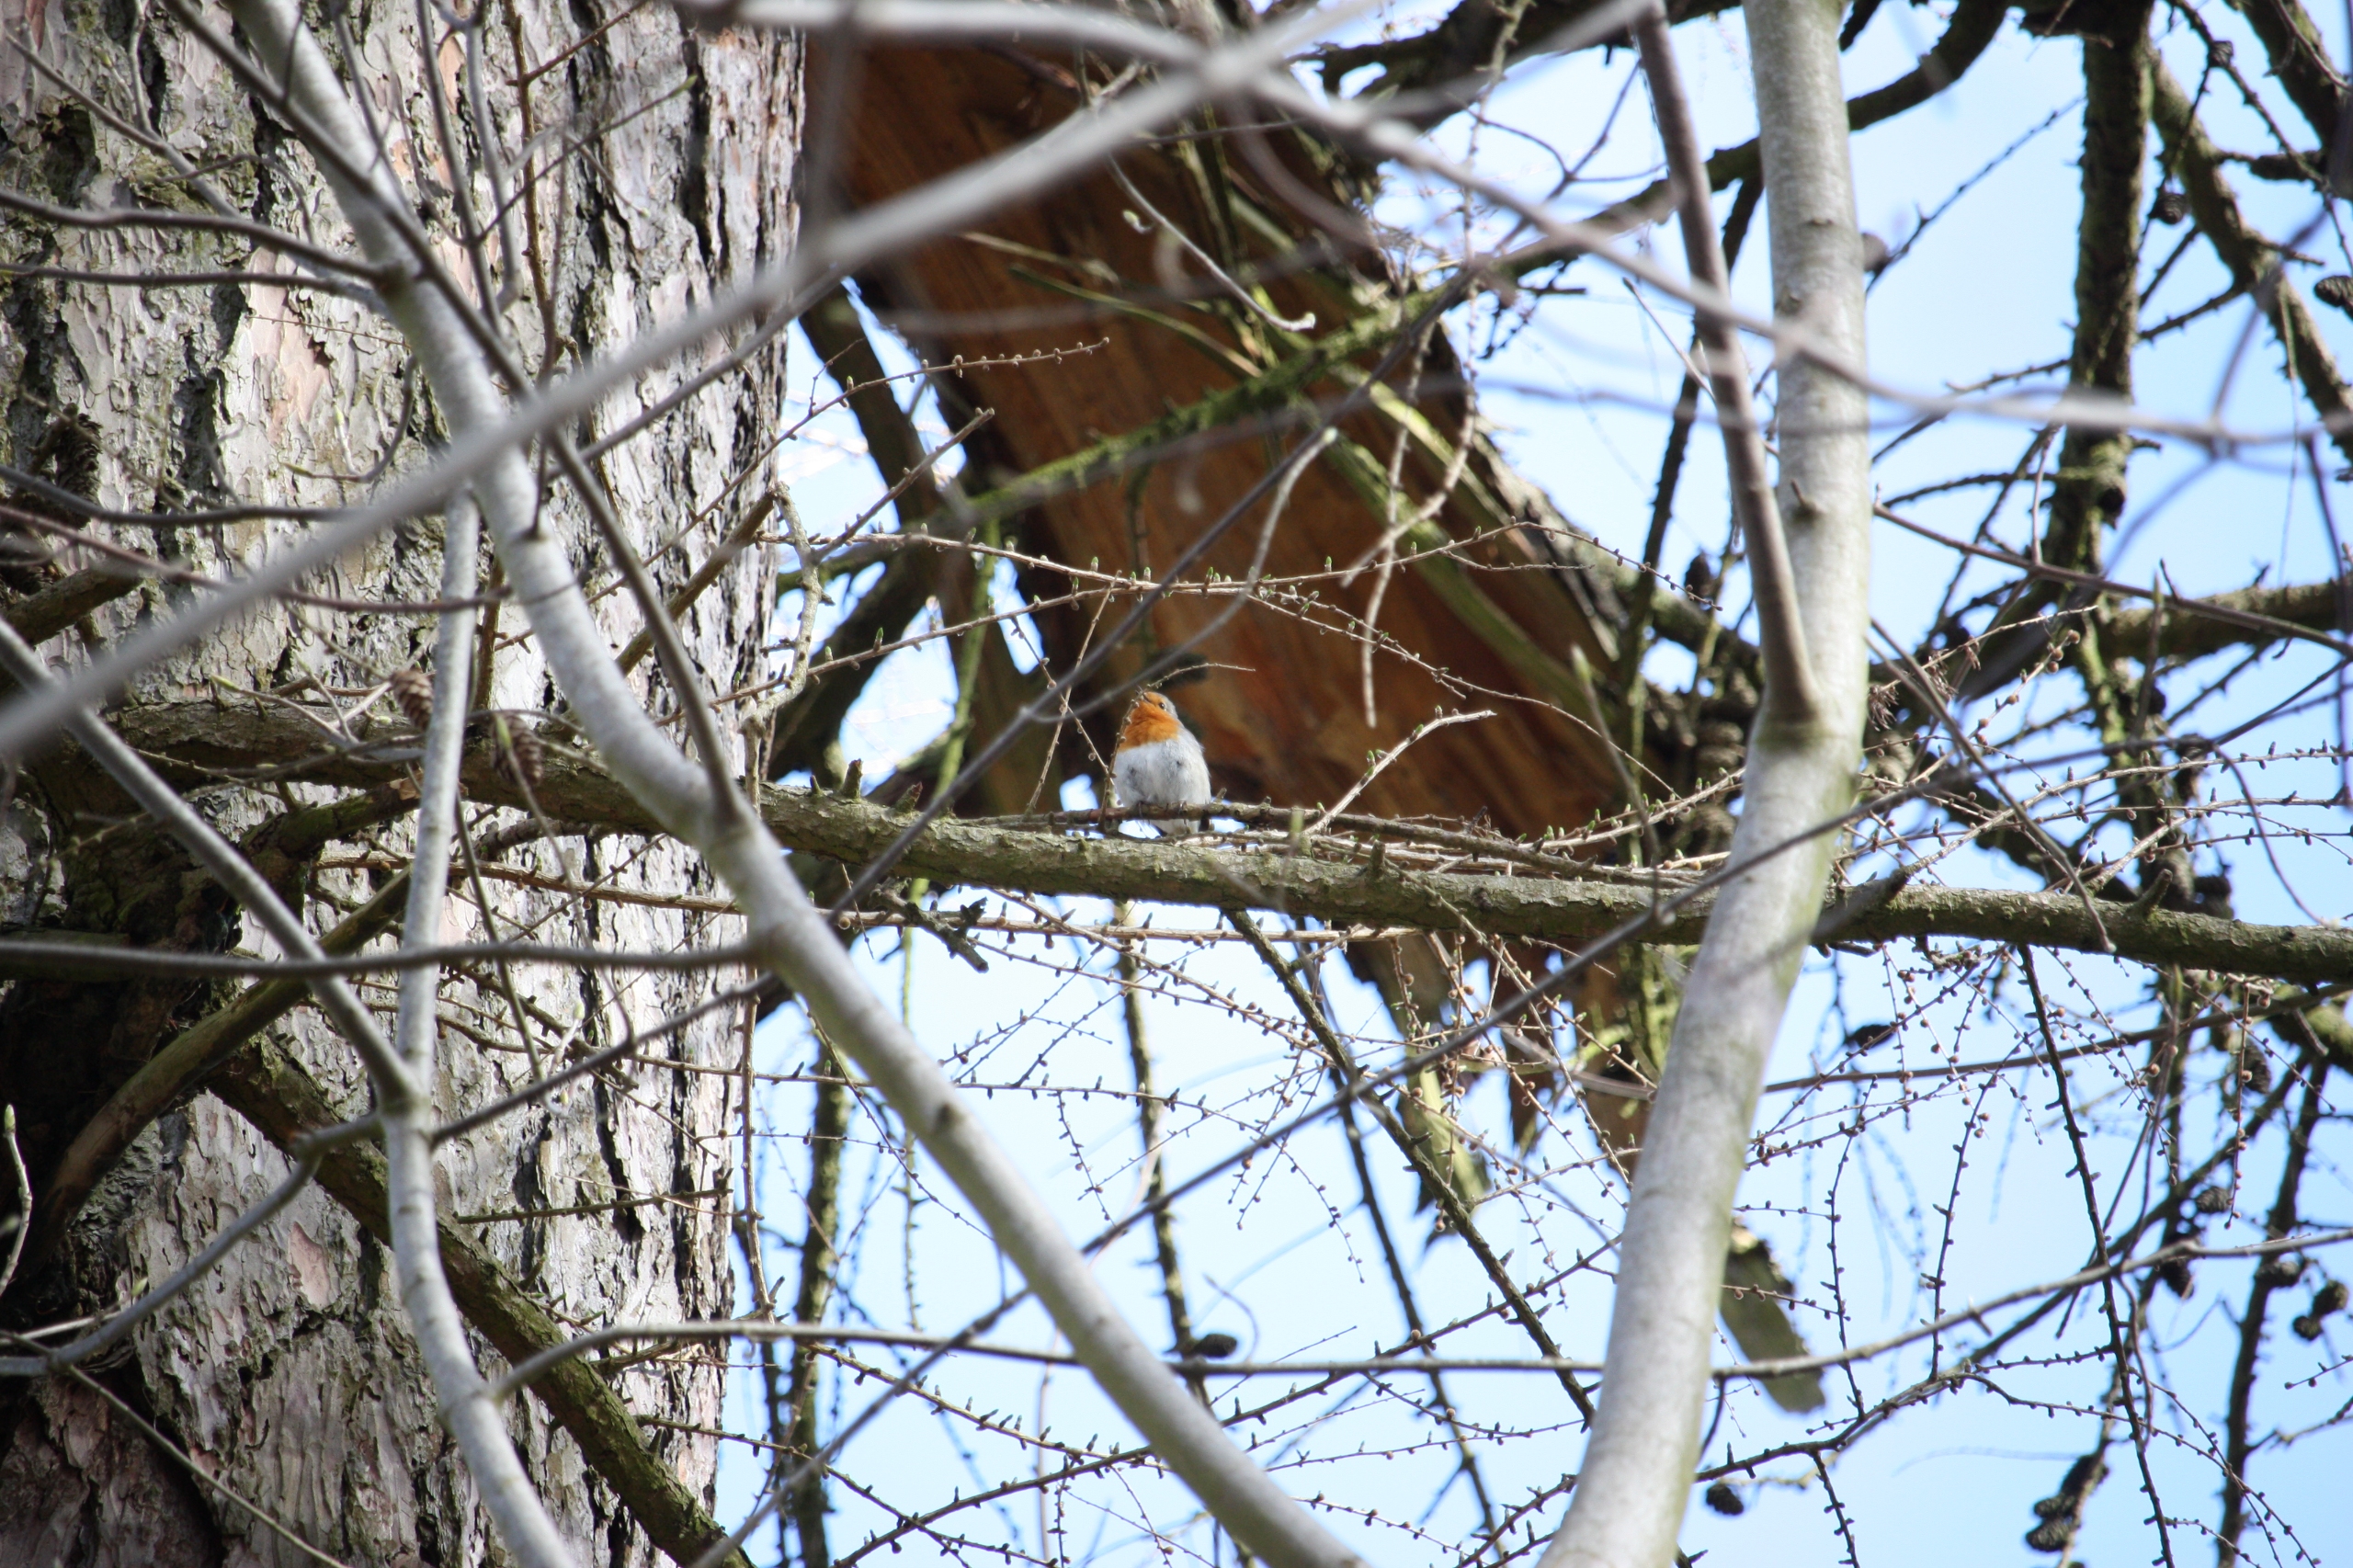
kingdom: Animalia
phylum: Chordata
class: Aves
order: Passeriformes
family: Muscicapidae
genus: Erithacus
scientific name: Erithacus rubecula
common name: Rødhals/rødkælk
